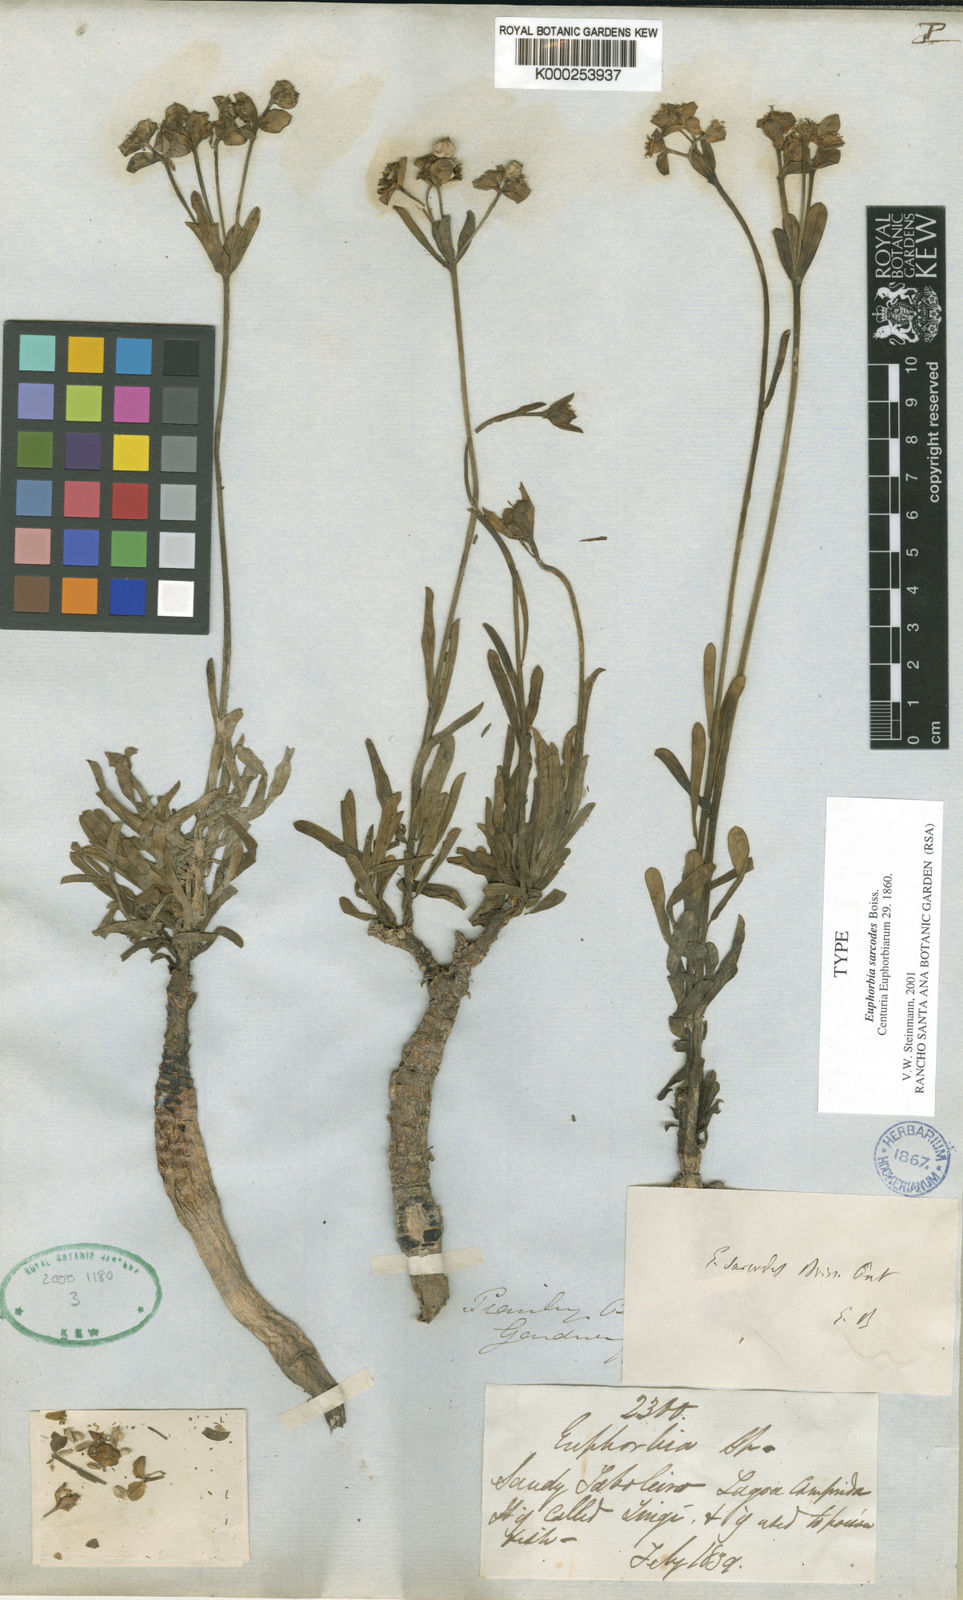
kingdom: Plantae
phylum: Tracheophyta
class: Magnoliopsida
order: Malpighiales
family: Euphorbiaceae
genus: Euphorbia
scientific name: Euphorbia sarcodes
